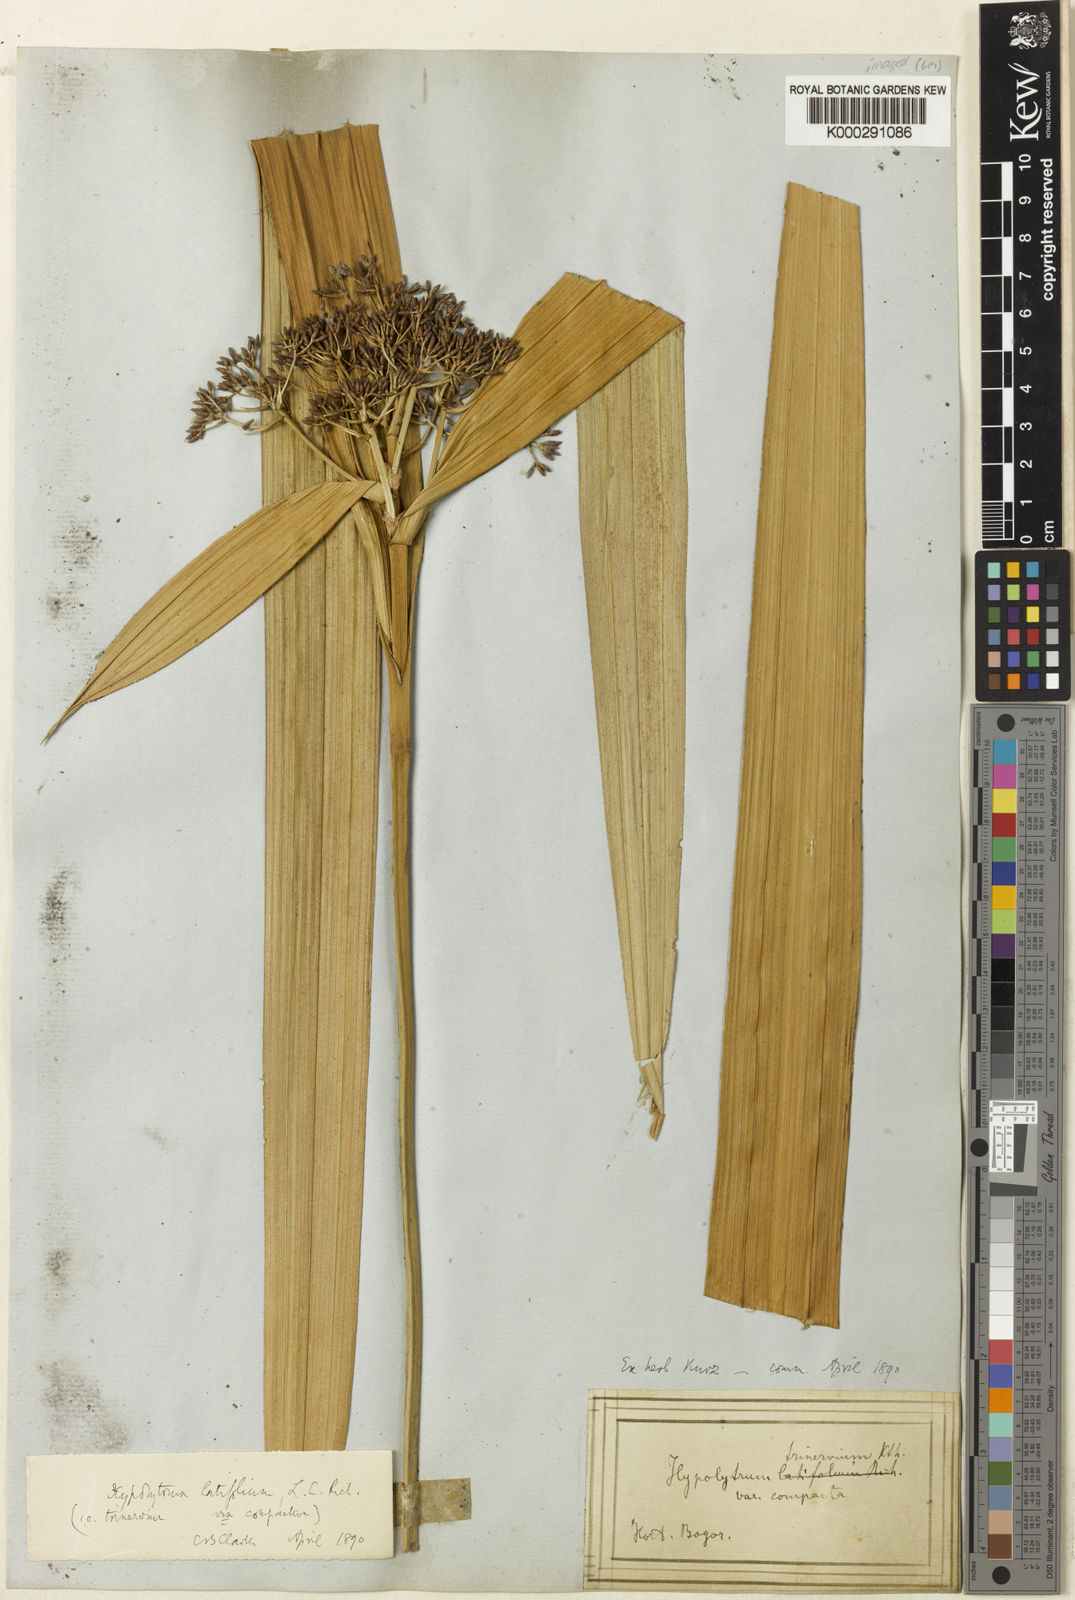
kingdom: Plantae
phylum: Tracheophyta
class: Liliopsida
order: Poales
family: Cyperaceae
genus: Hypolytrum
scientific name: Hypolytrum nemorum
